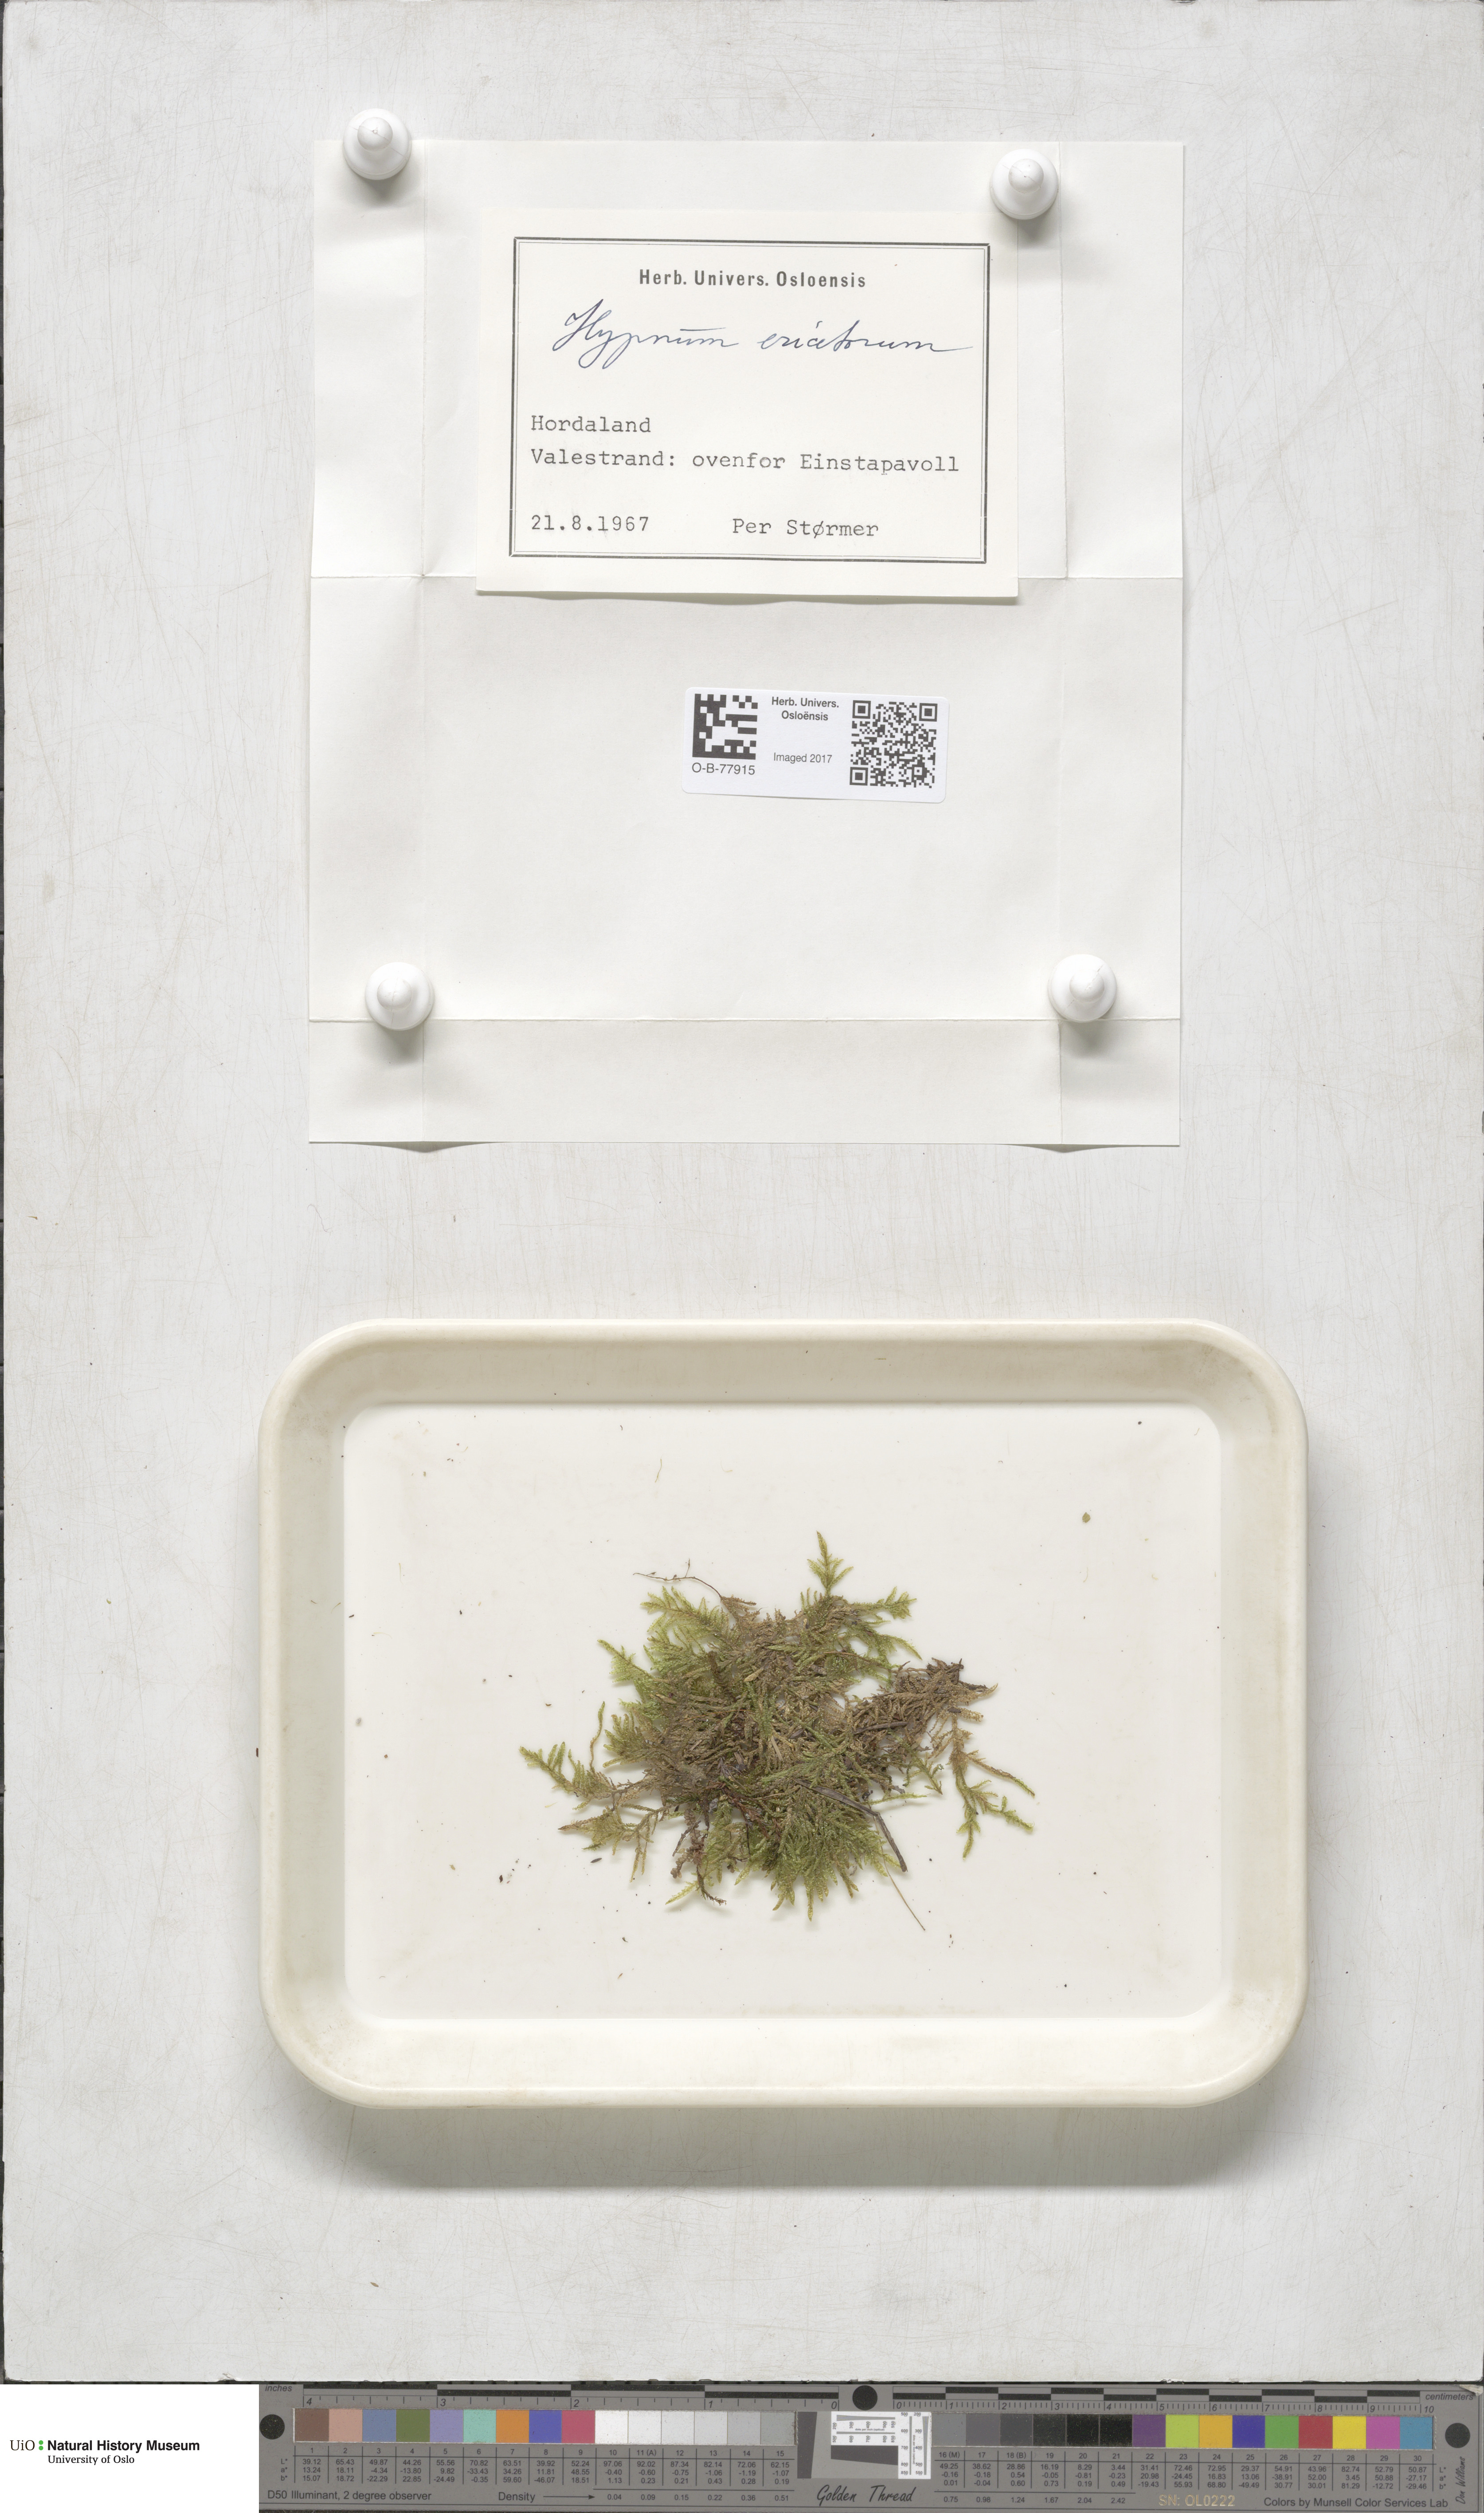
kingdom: Plantae
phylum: Bryophyta
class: Bryopsida
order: Hypnales
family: Hypnaceae
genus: Hypnum
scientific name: Hypnum jutlandicum
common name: Heath plait-moss
